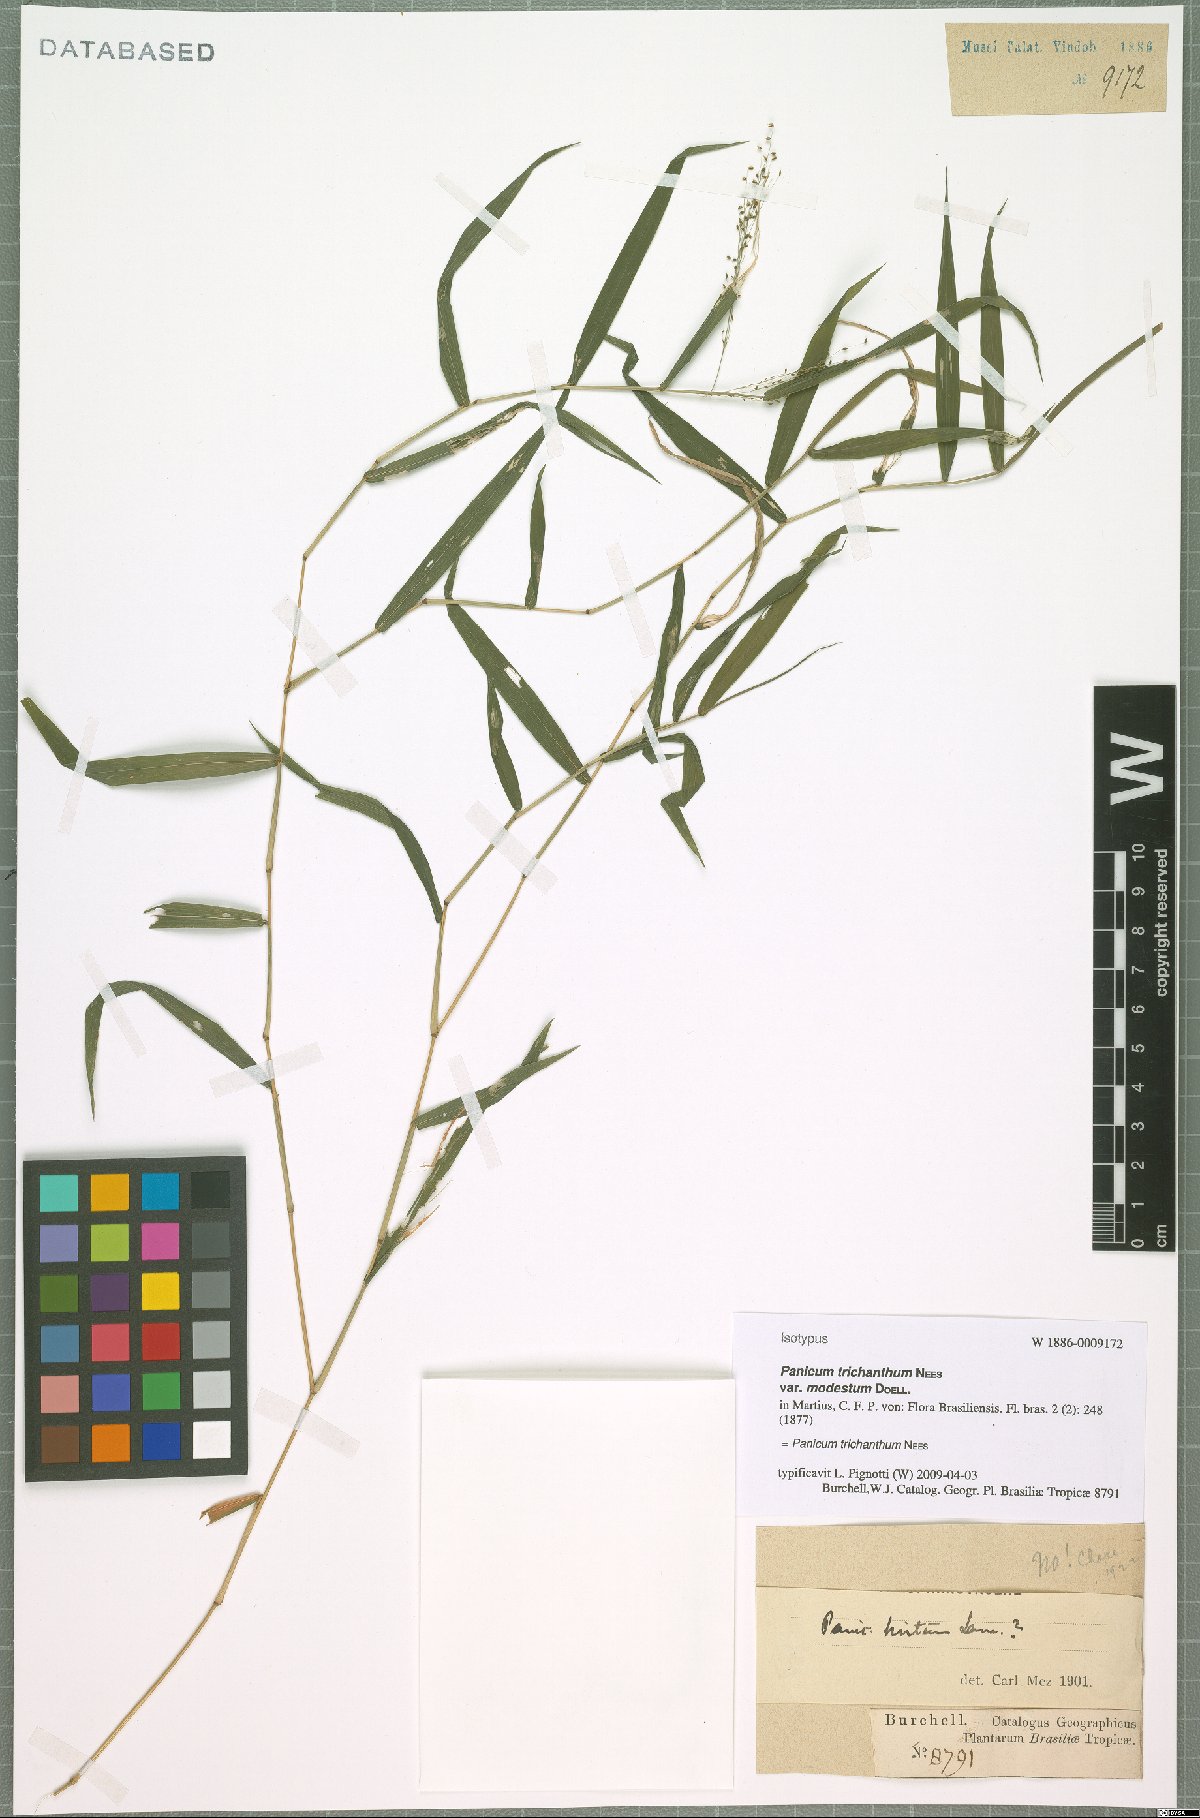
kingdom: Plantae
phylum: Tracheophyta
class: Liliopsida
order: Poales
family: Poaceae
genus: Panicum
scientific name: Panicum trichanthum
